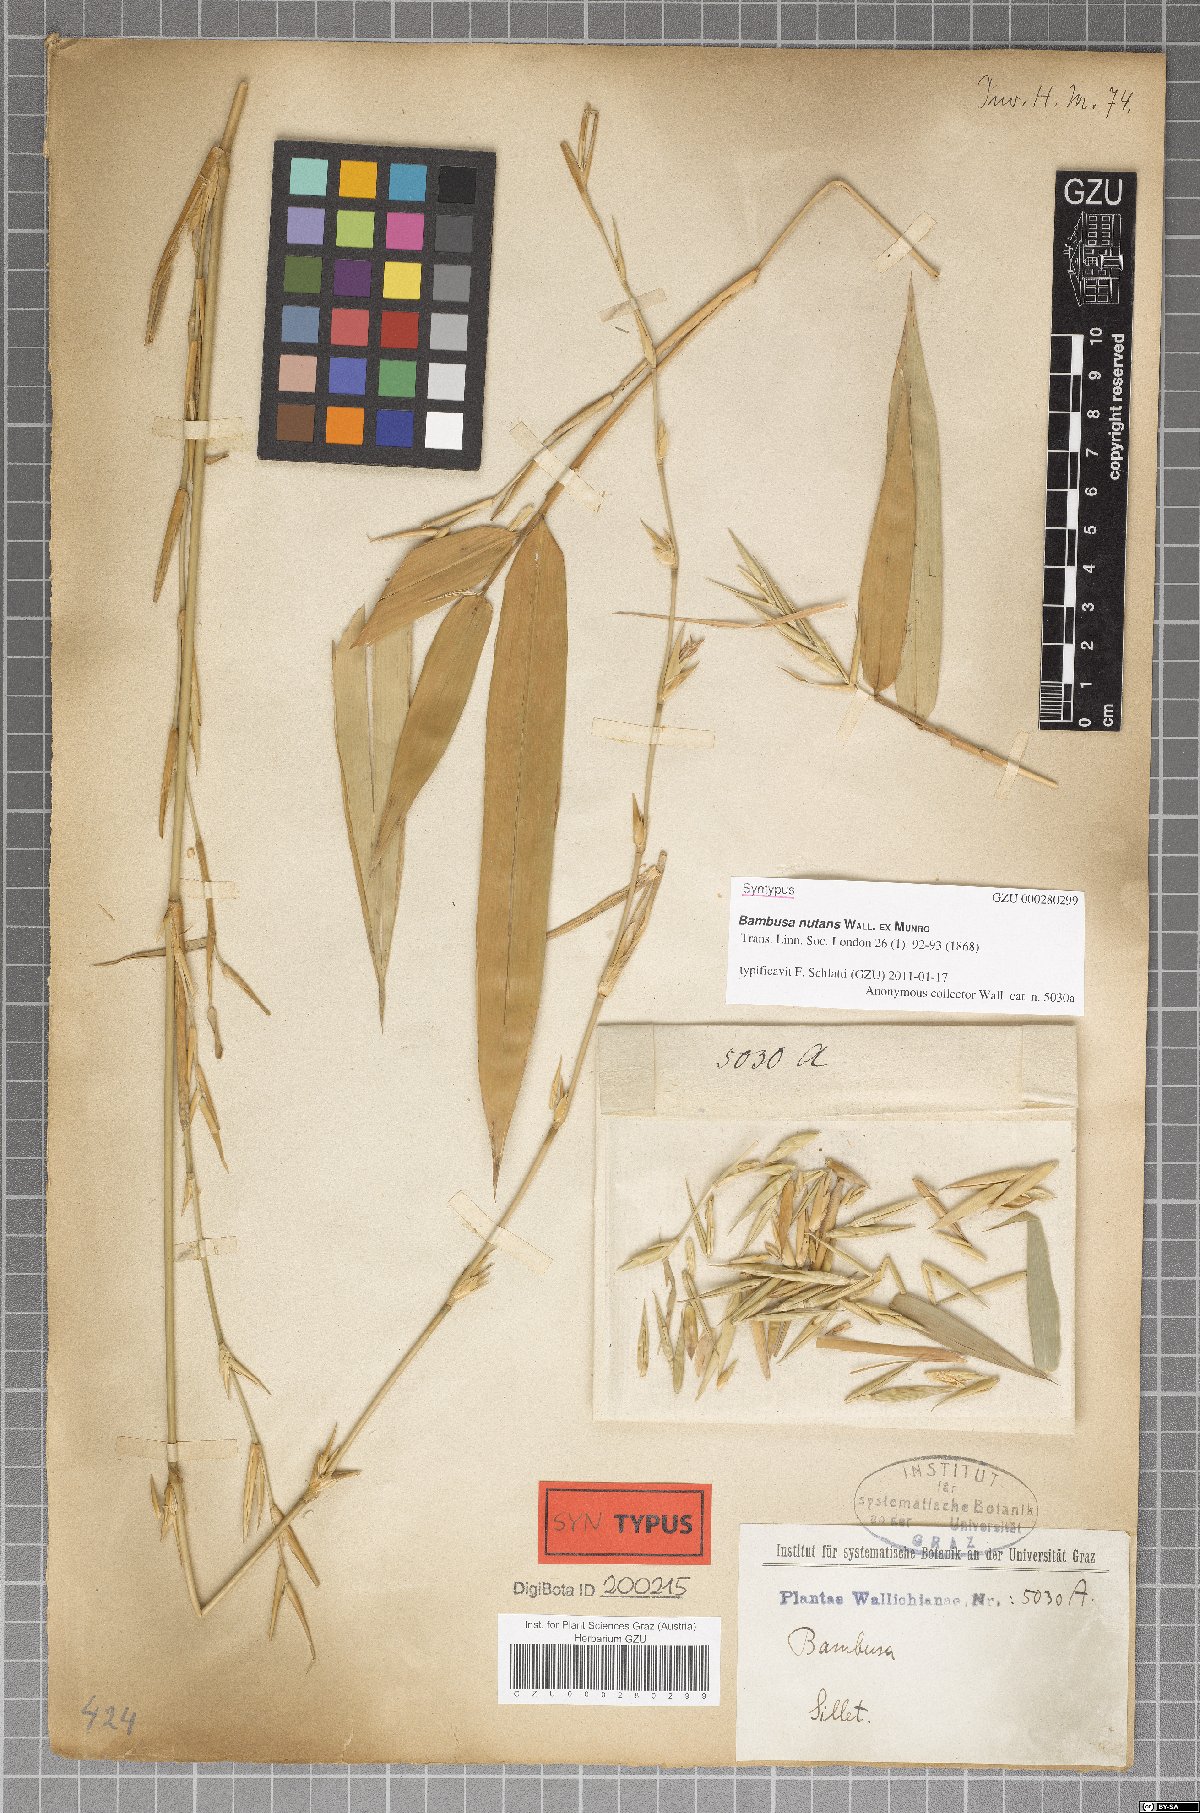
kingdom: Plantae
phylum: Tracheophyta
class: Liliopsida
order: Poales
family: Poaceae
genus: Bambusa
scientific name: Bambusa nutans
